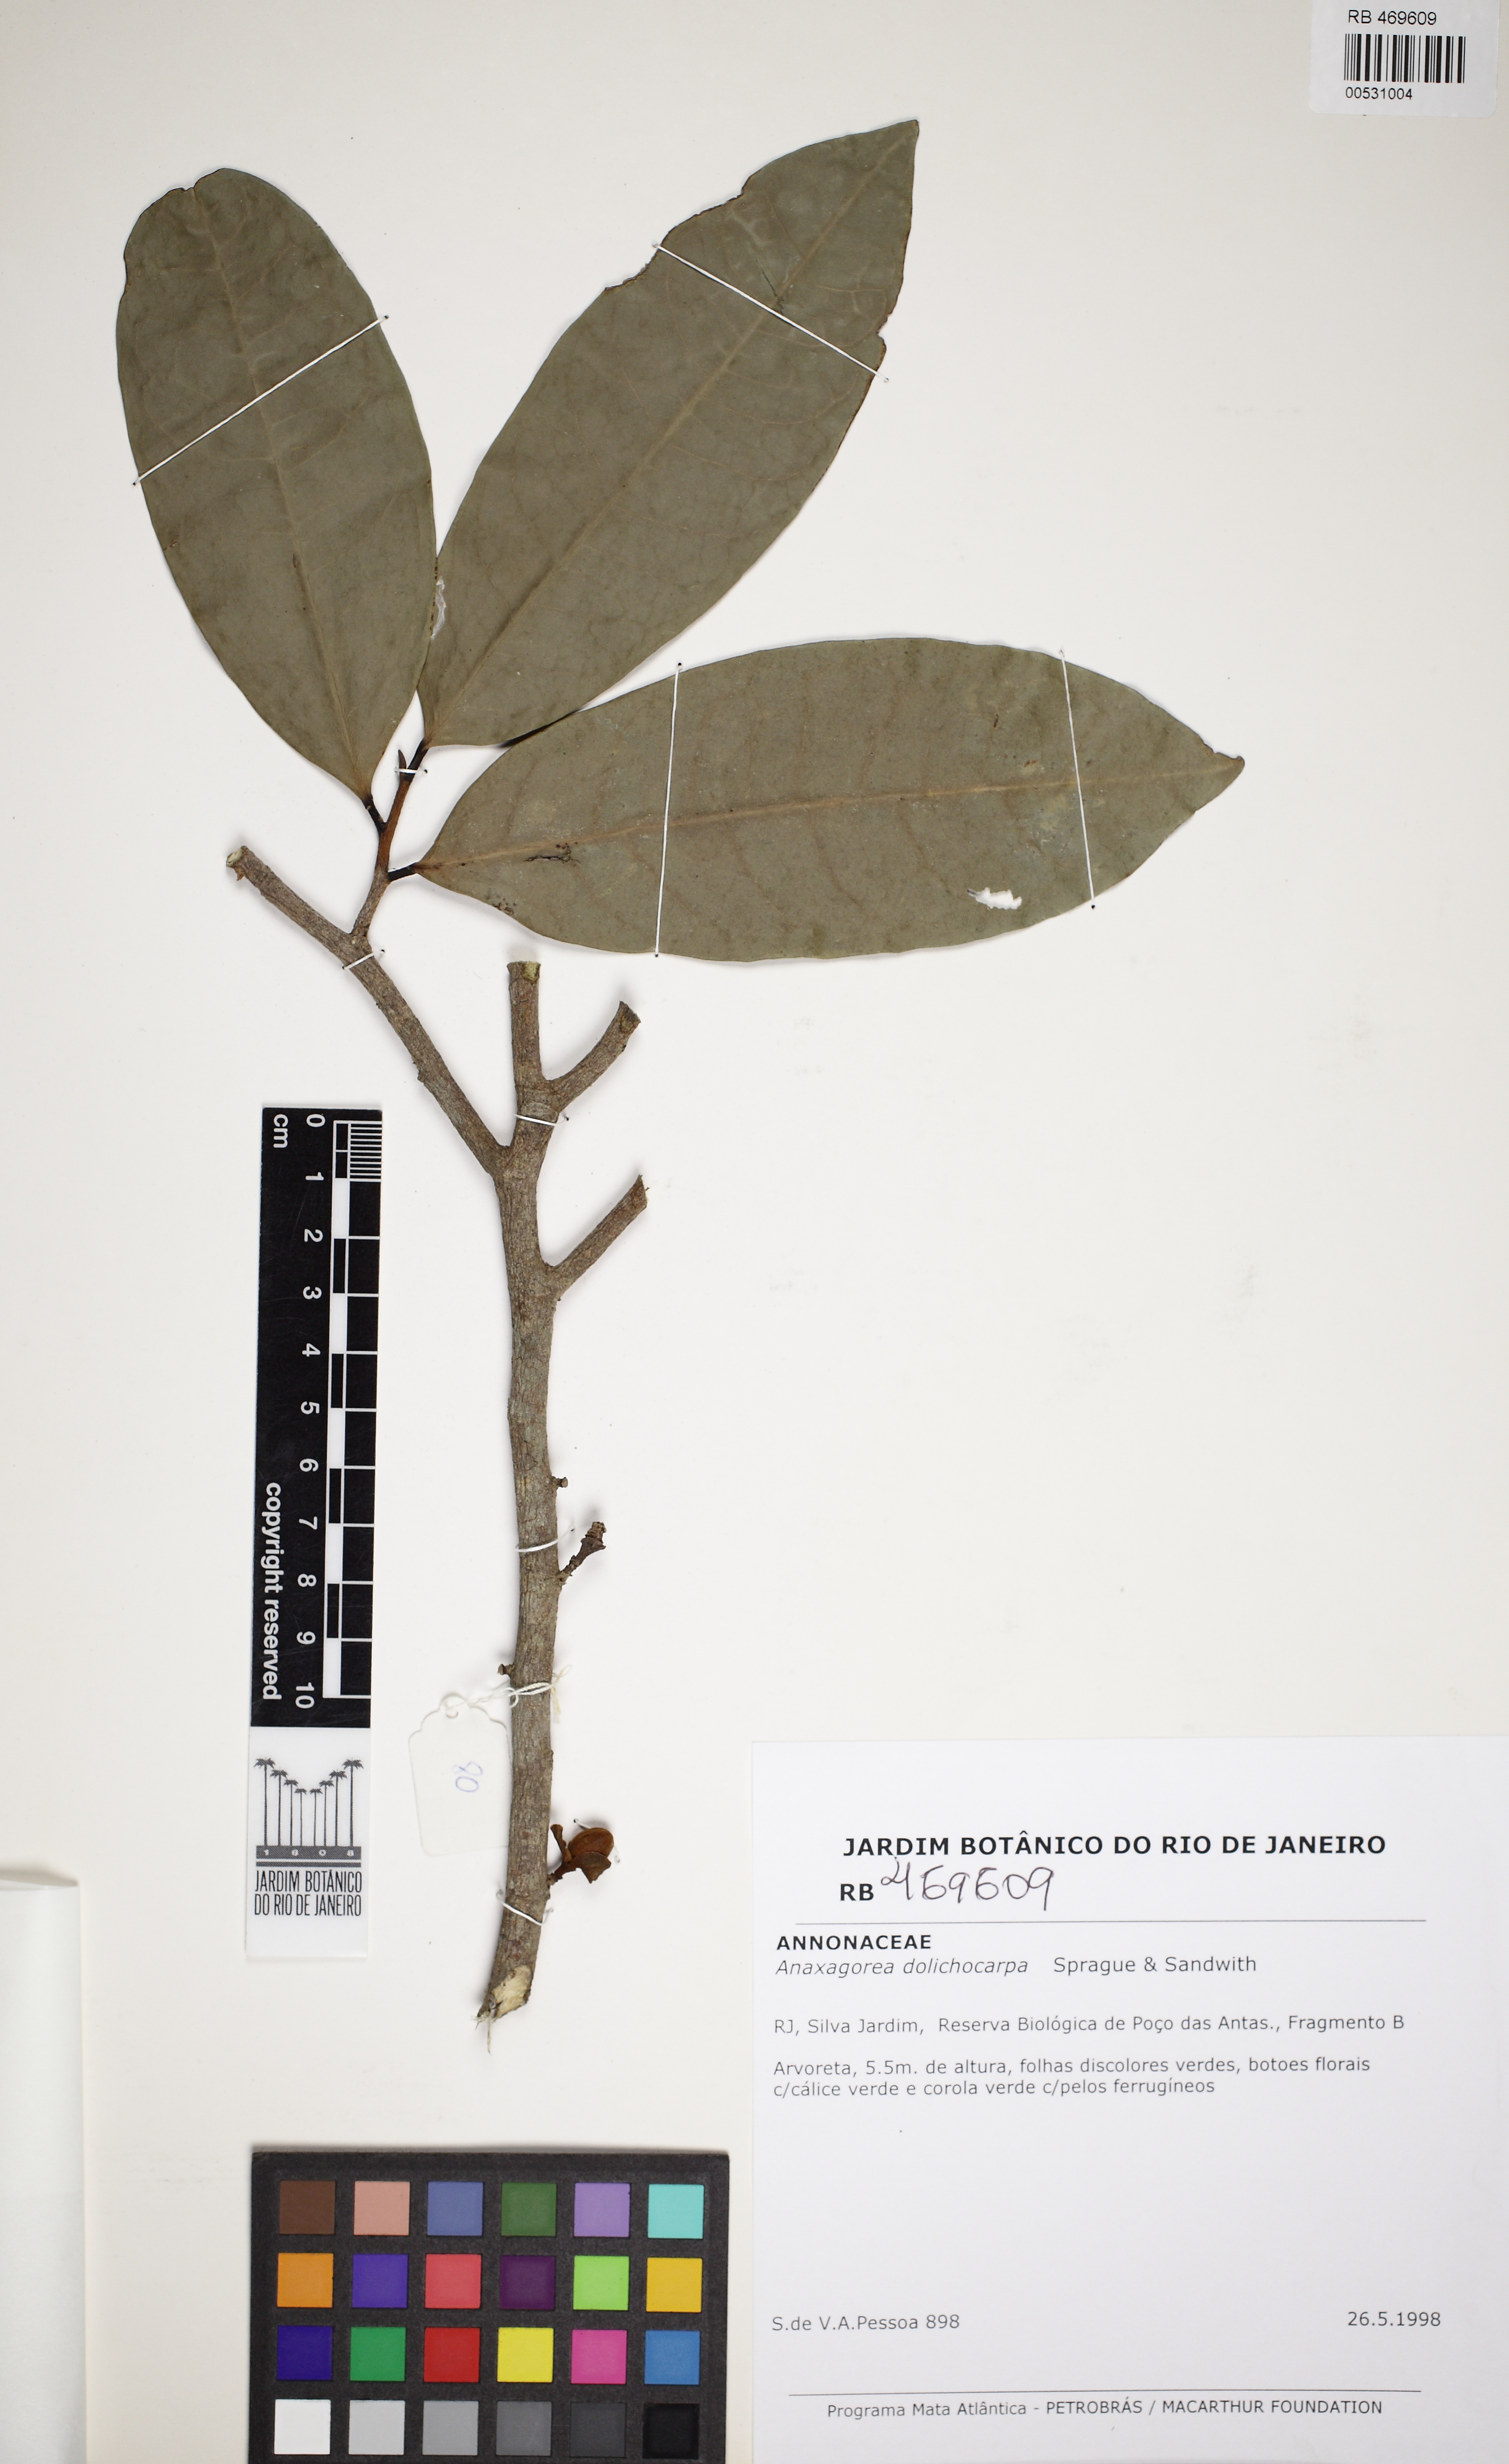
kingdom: Plantae
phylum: Tracheophyta
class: Magnoliopsida
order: Magnoliales
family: Annonaceae
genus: Anaxagorea
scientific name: Anaxagorea dolichocarpa
